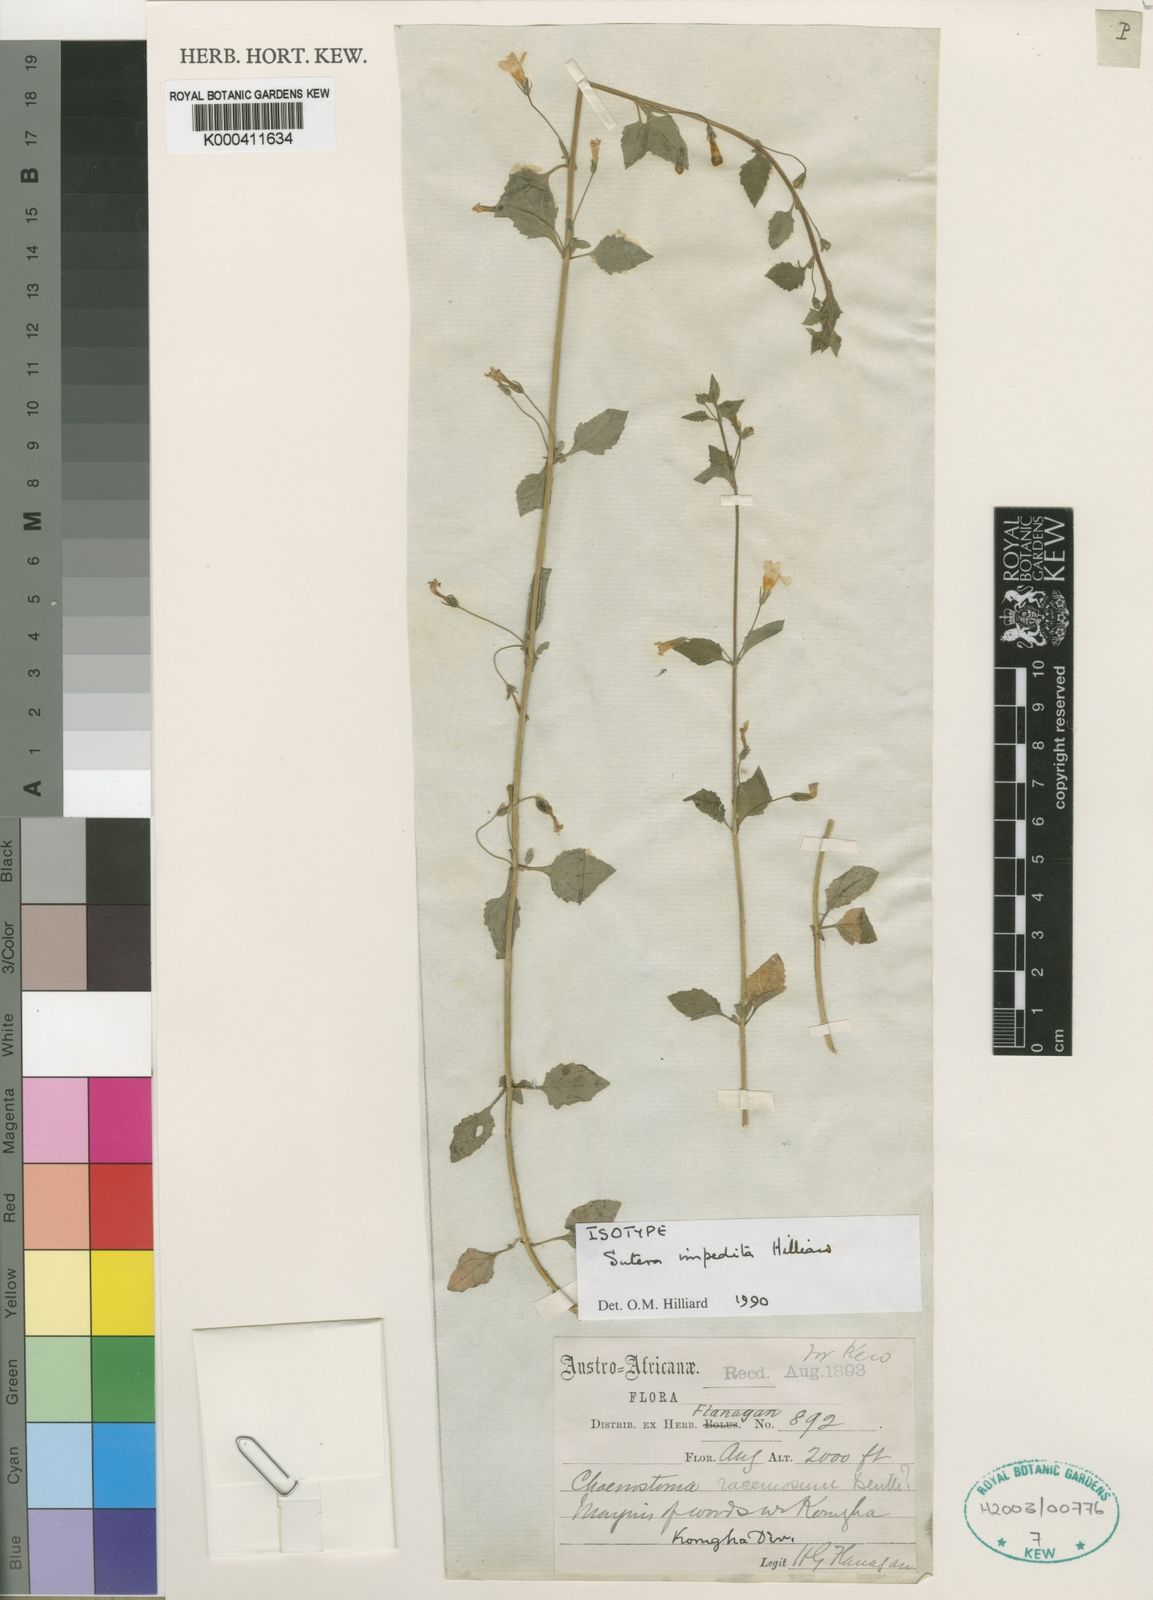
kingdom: Plantae
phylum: Tracheophyta
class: Magnoliopsida
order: Lamiales
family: Scrophulariaceae
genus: Chaenostoma
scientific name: Chaenostoma impeditum
